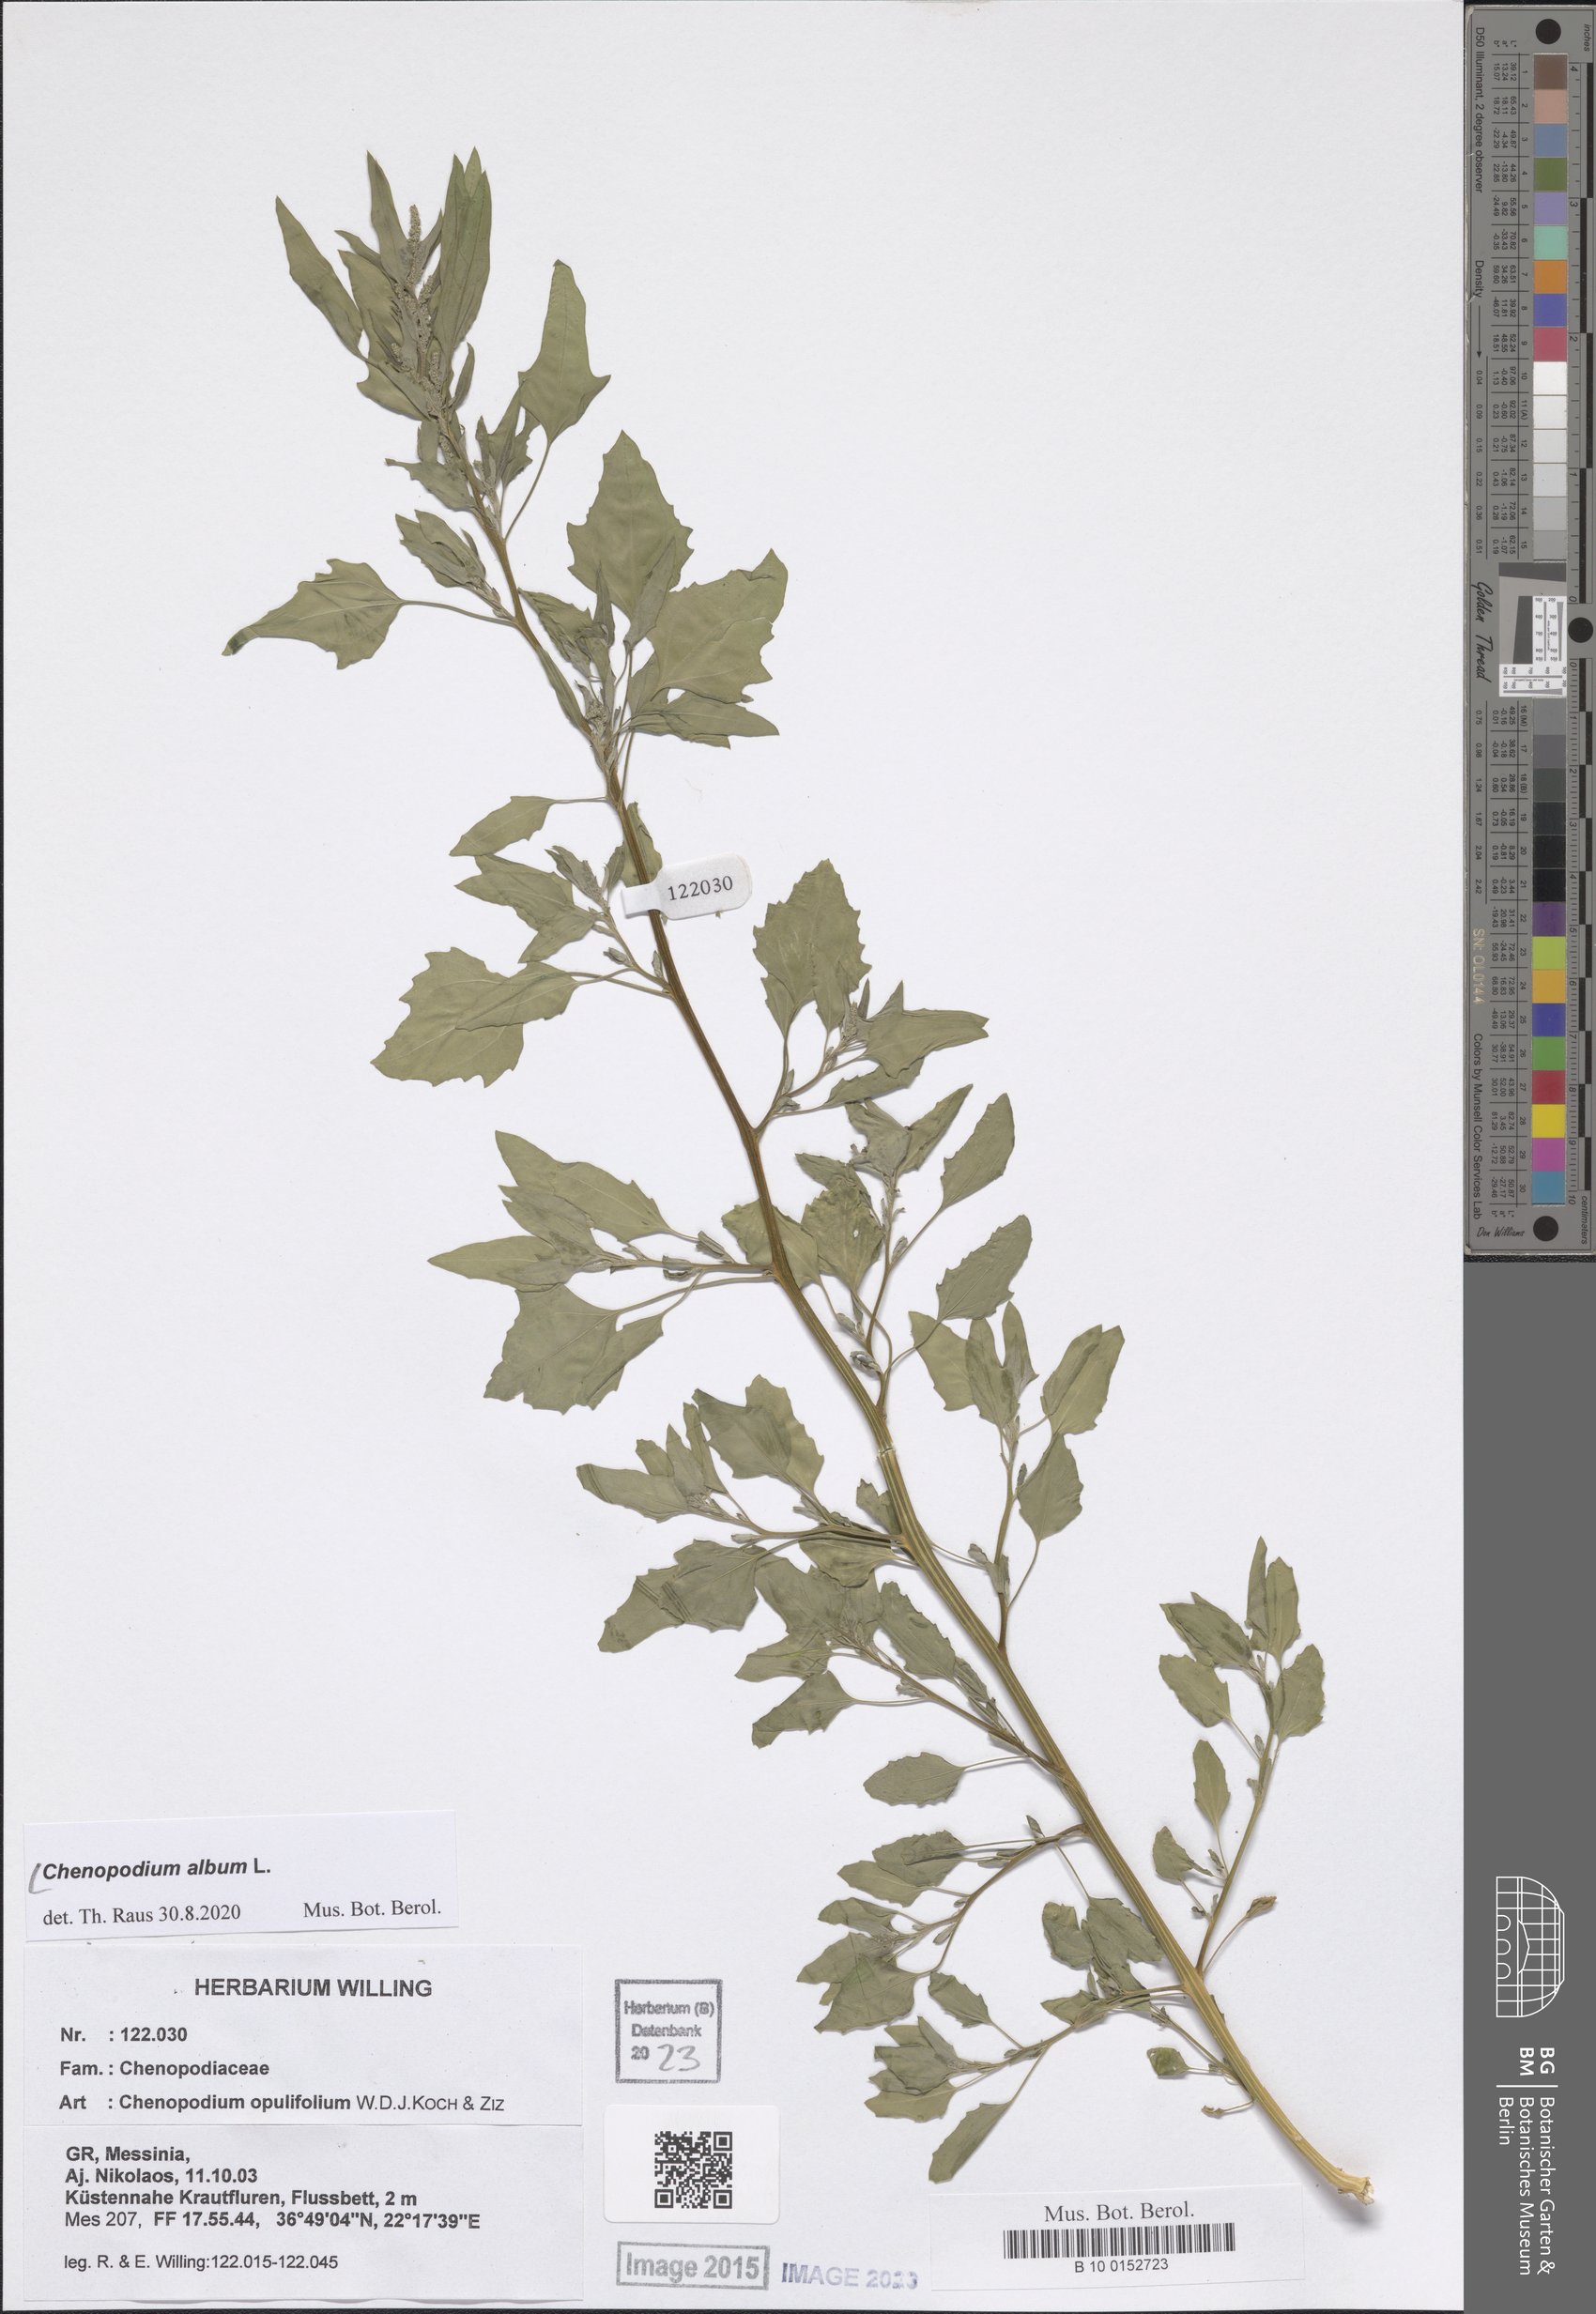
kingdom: Plantae
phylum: Tracheophyta
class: Magnoliopsida
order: Caryophyllales
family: Amaranthaceae
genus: Chenopodium
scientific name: Chenopodium album
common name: Fat-hen
